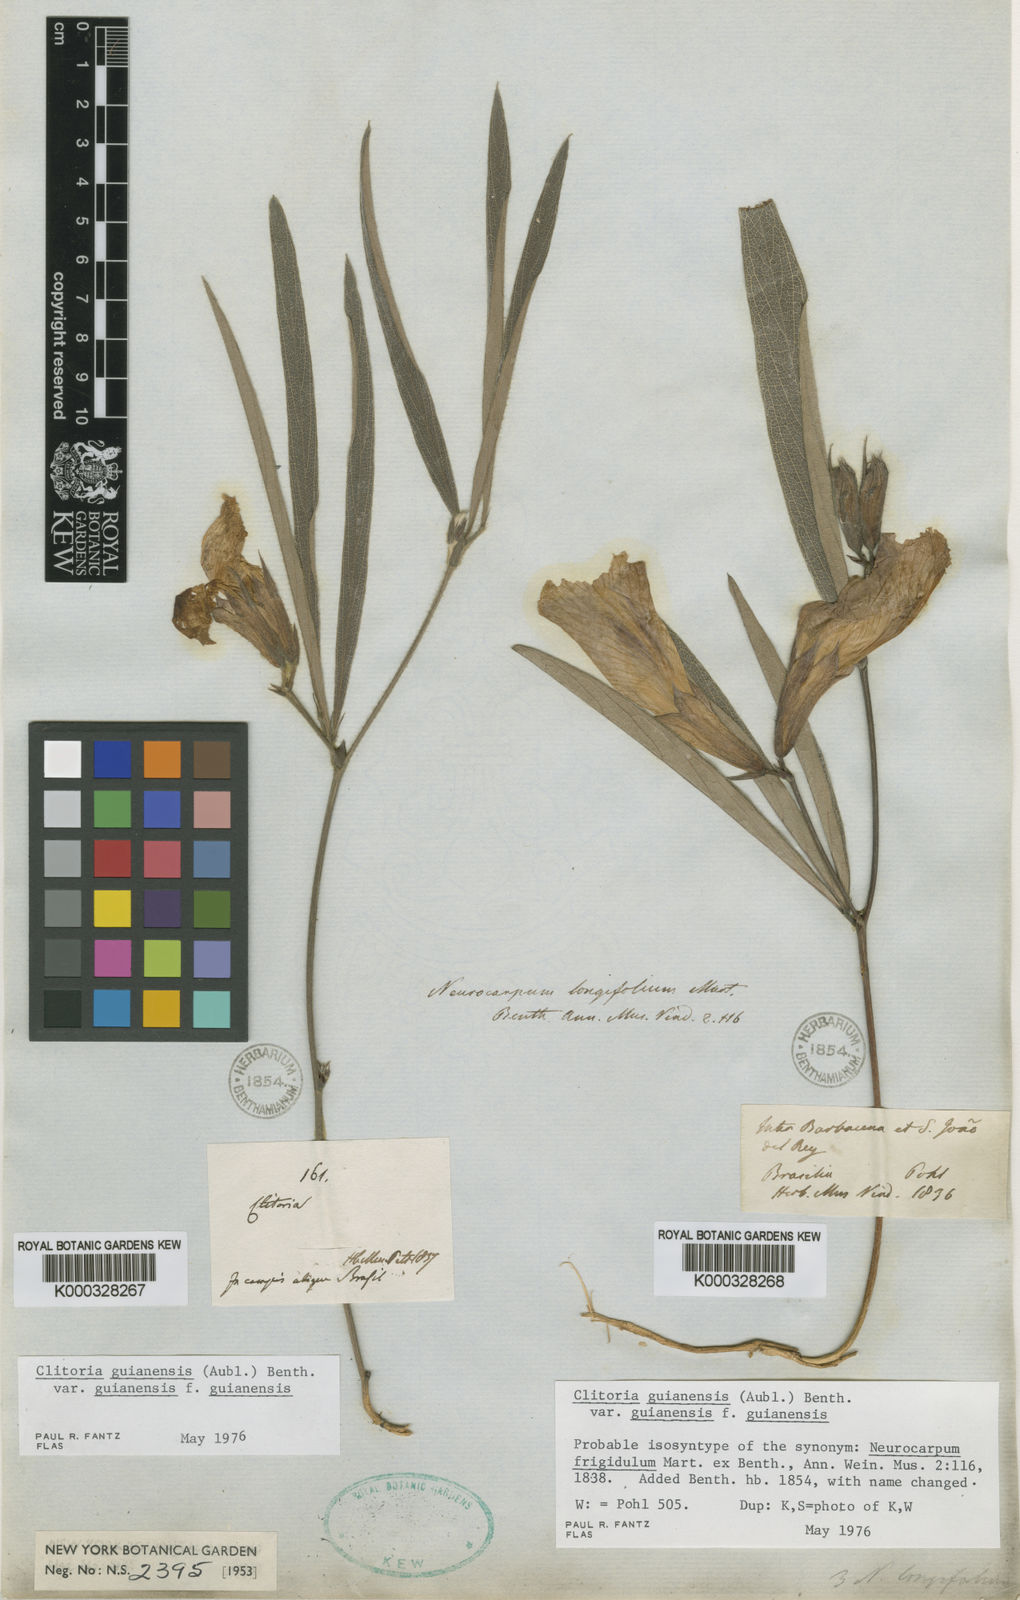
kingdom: Plantae
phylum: Tracheophyta
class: Magnoliopsida
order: Fabales
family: Fabaceae
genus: Clitoria
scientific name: Clitoria guianensis
